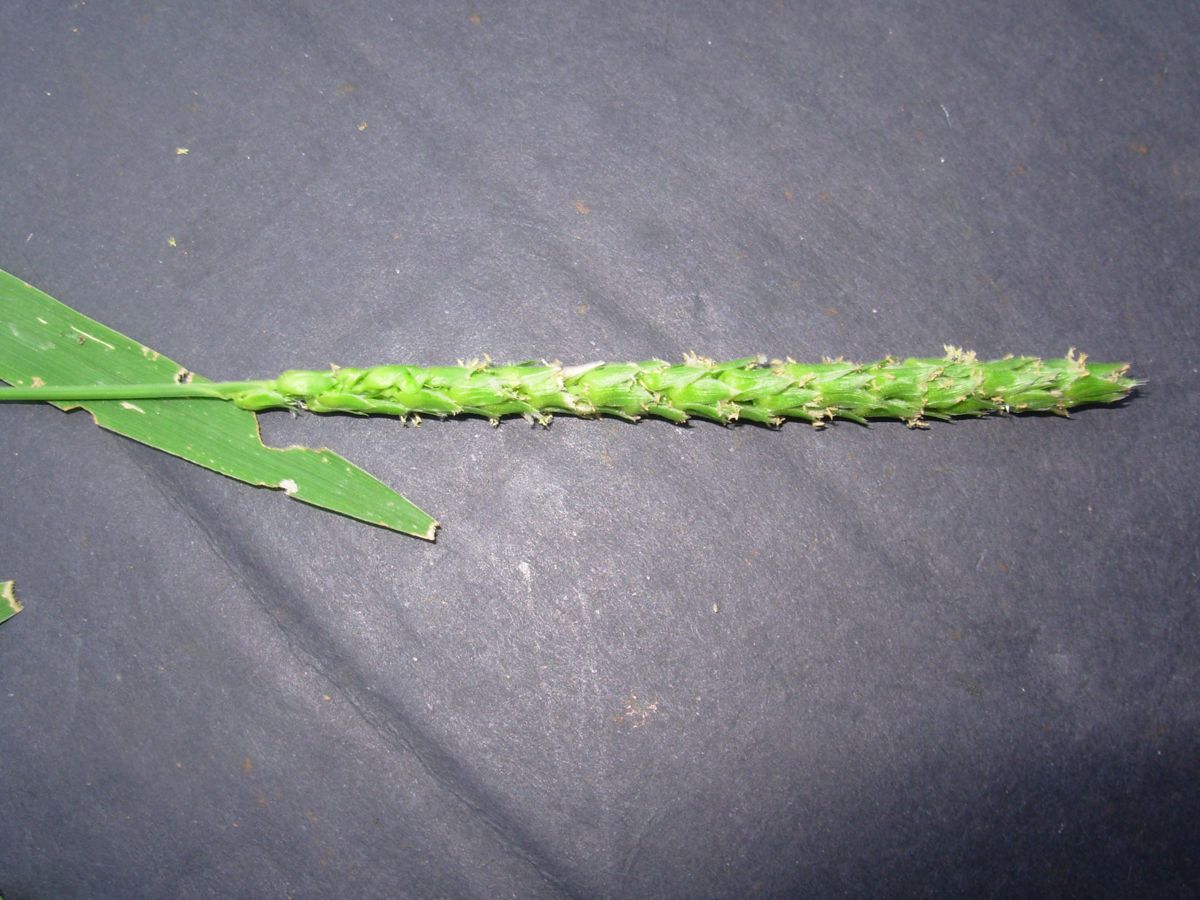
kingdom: Plantae
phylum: Tracheophyta
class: Liliopsida
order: Poales
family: Poaceae
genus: Anthephora
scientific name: Anthephora hermaphrodita
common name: Oldfield grass
